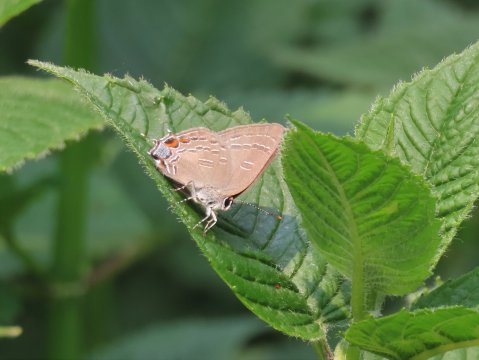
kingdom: Animalia
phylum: Arthropoda
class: Insecta
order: Lepidoptera
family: Lycaenidae
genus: Satyrium
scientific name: Satyrium calanus
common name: Banded Hairstreak
